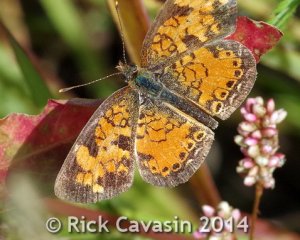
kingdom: Animalia
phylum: Arthropoda
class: Insecta
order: Lepidoptera
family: Nymphalidae
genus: Phyciodes
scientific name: Phyciodes tharos
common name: Northern Crescent
